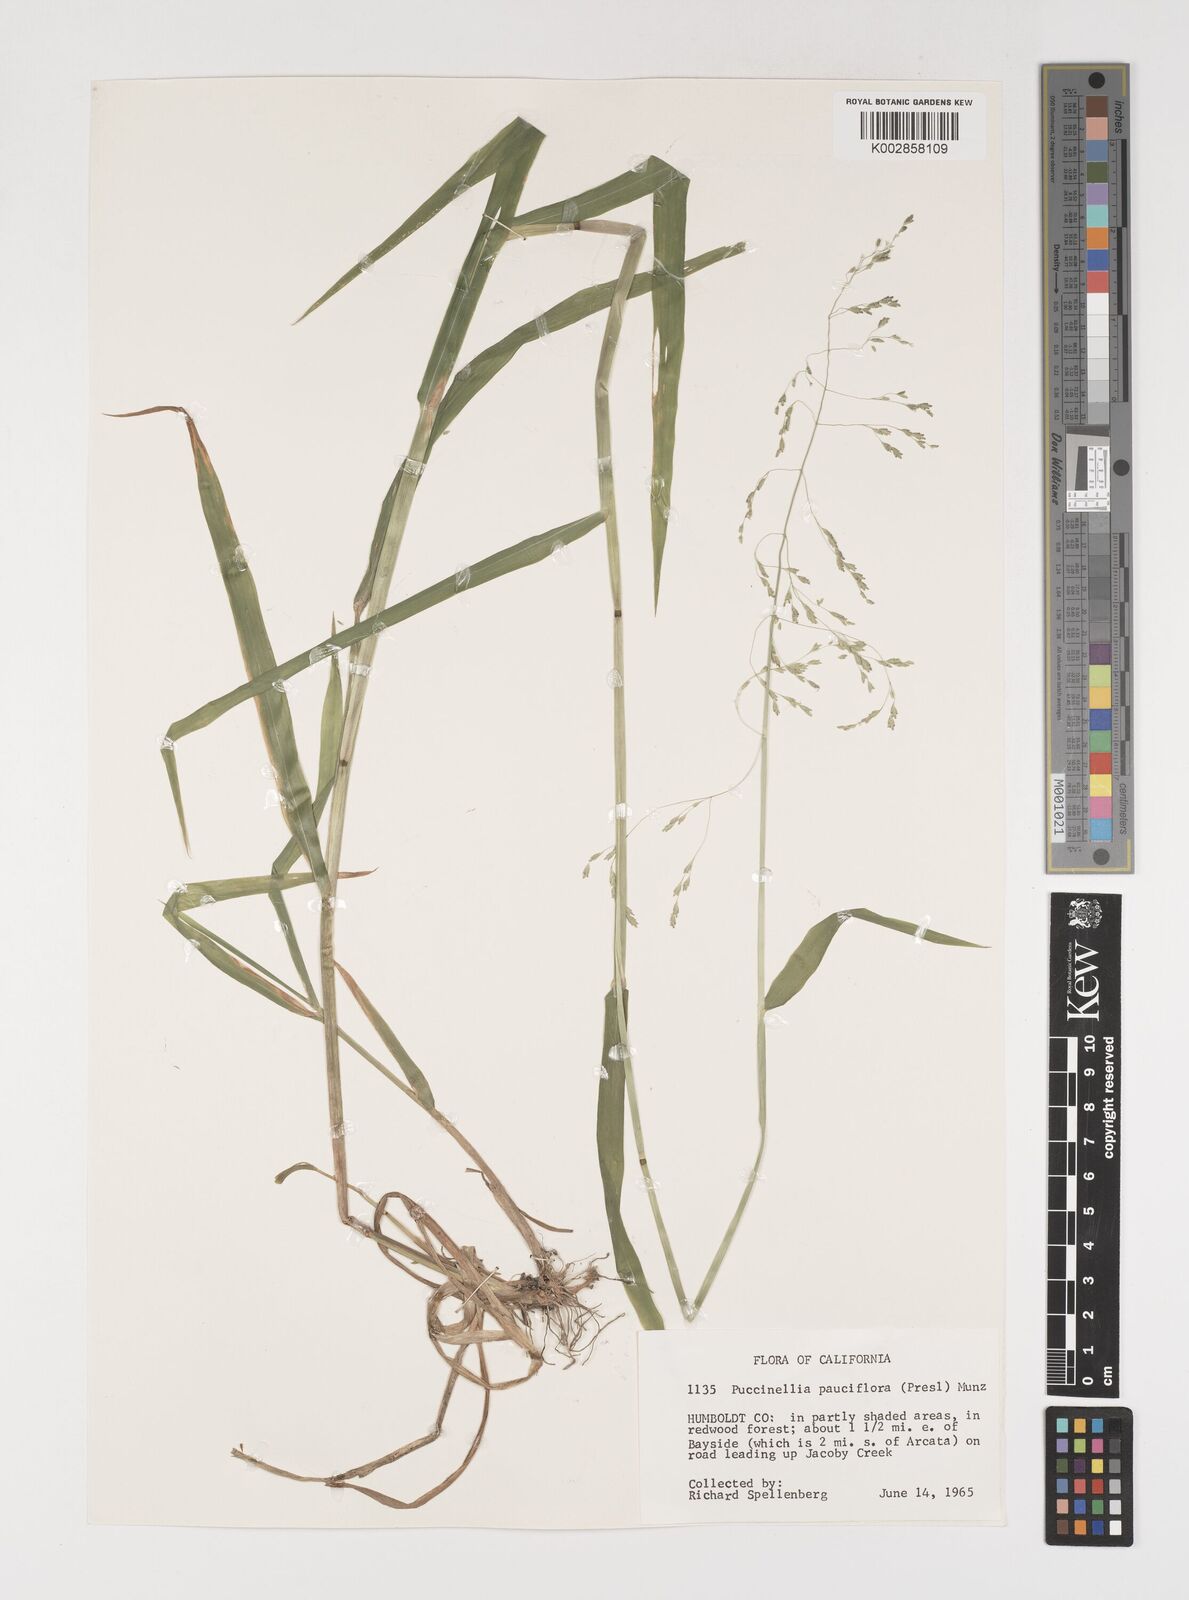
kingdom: Plantae
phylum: Tracheophyta
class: Liliopsida
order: Poales
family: Poaceae
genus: Torreyochloa
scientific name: Torreyochloa pallida
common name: Pale false mannagrass
